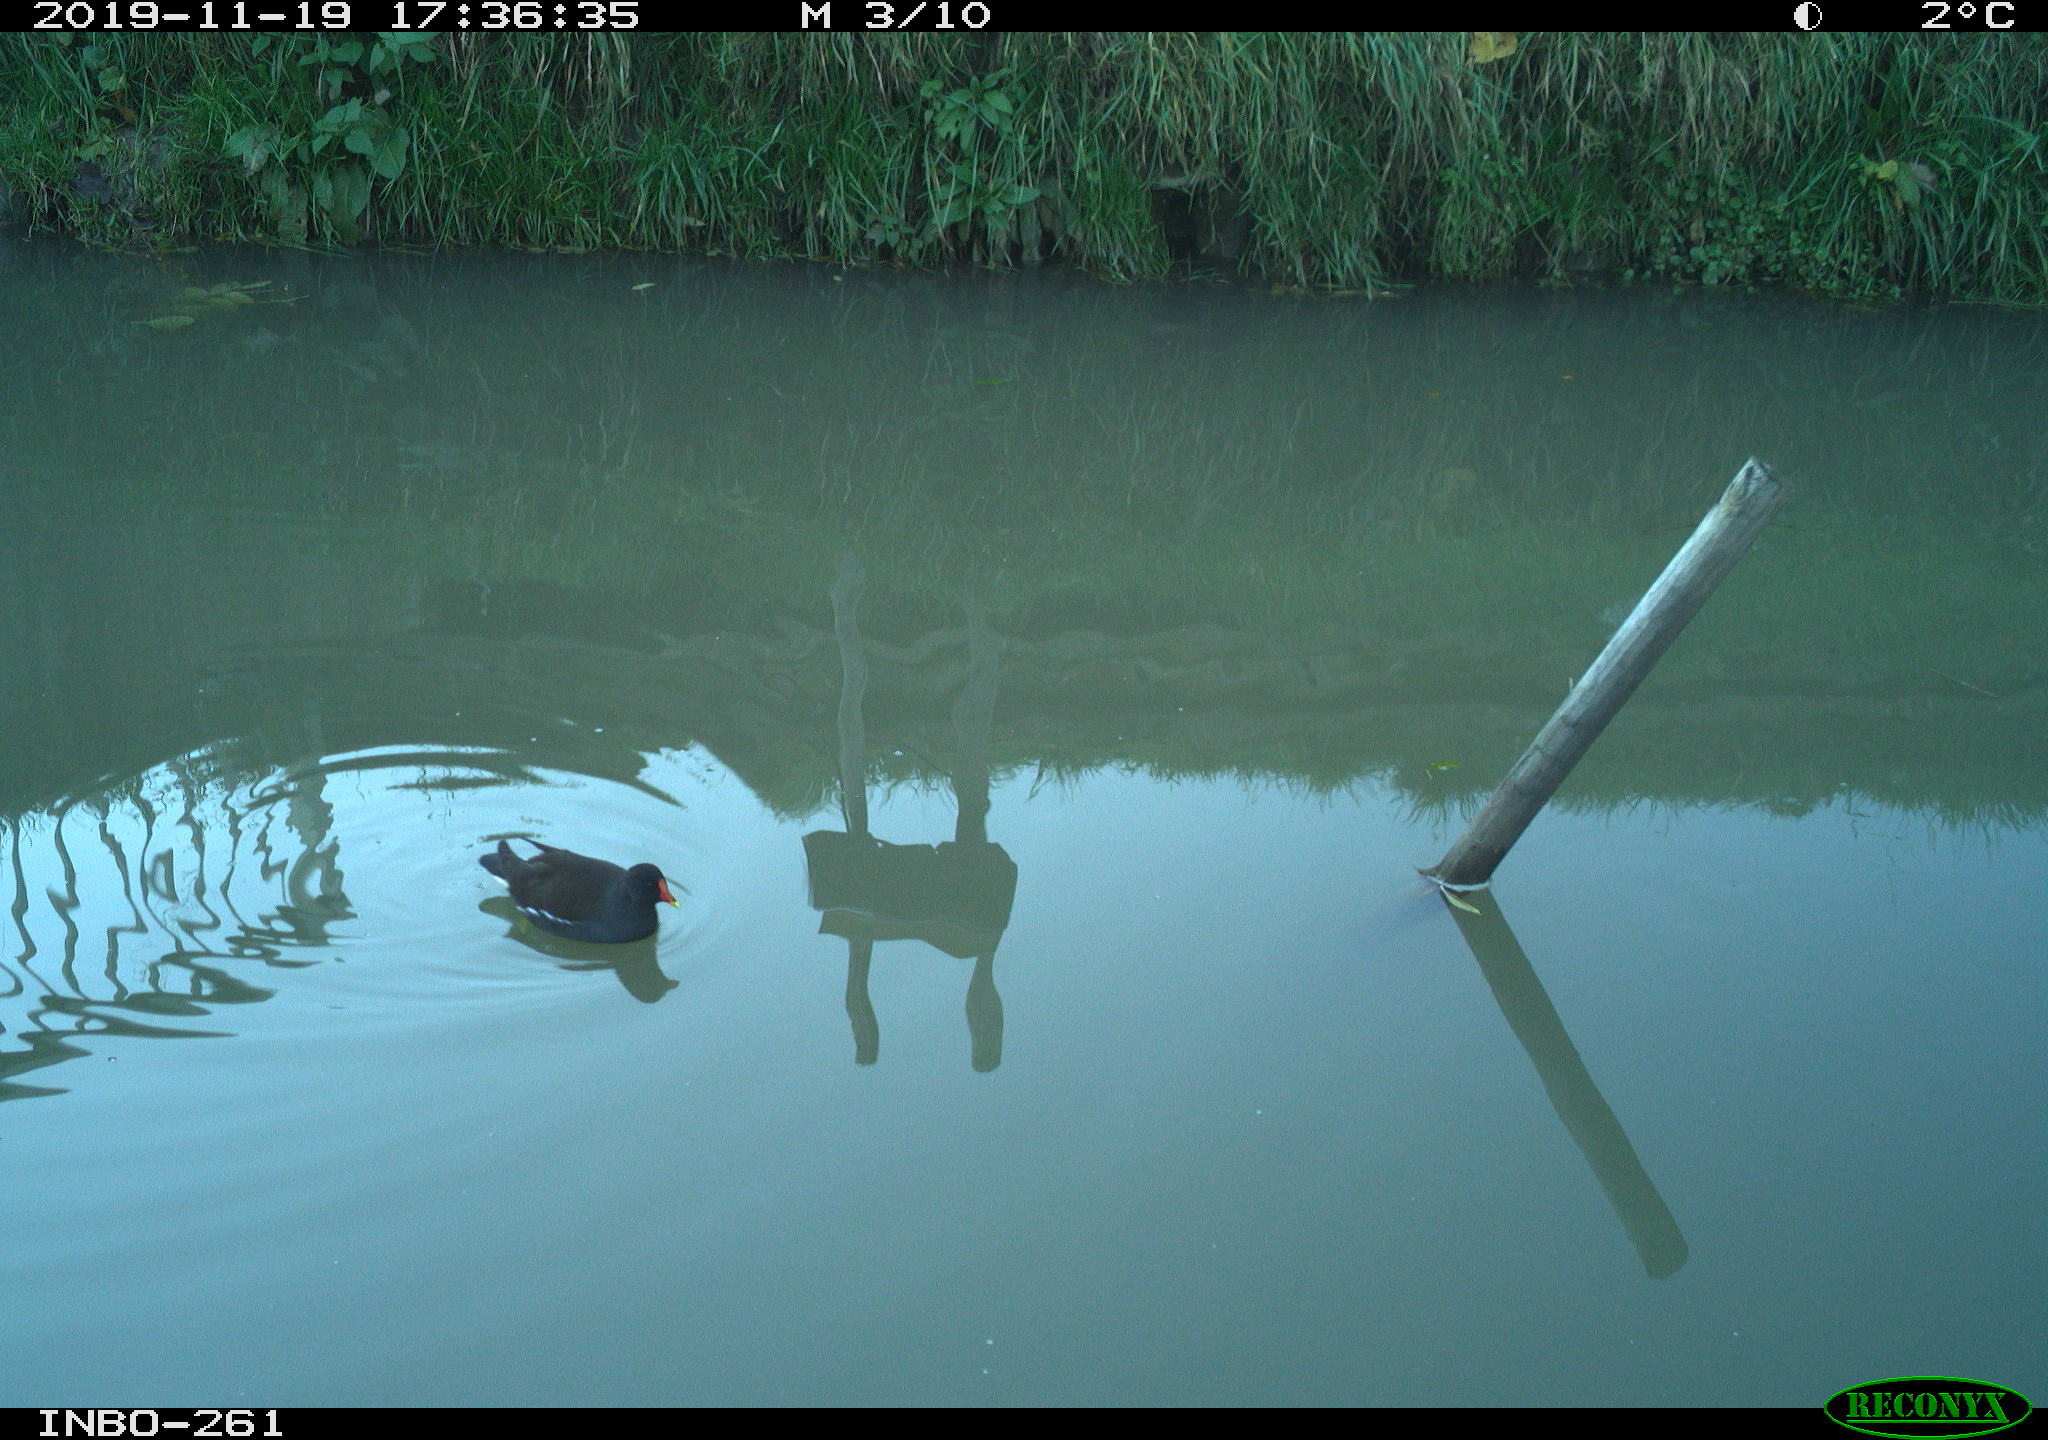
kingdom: Animalia
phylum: Chordata
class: Aves
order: Gruiformes
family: Rallidae
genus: Gallinula
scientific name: Gallinula chloropus
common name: Common moorhen
